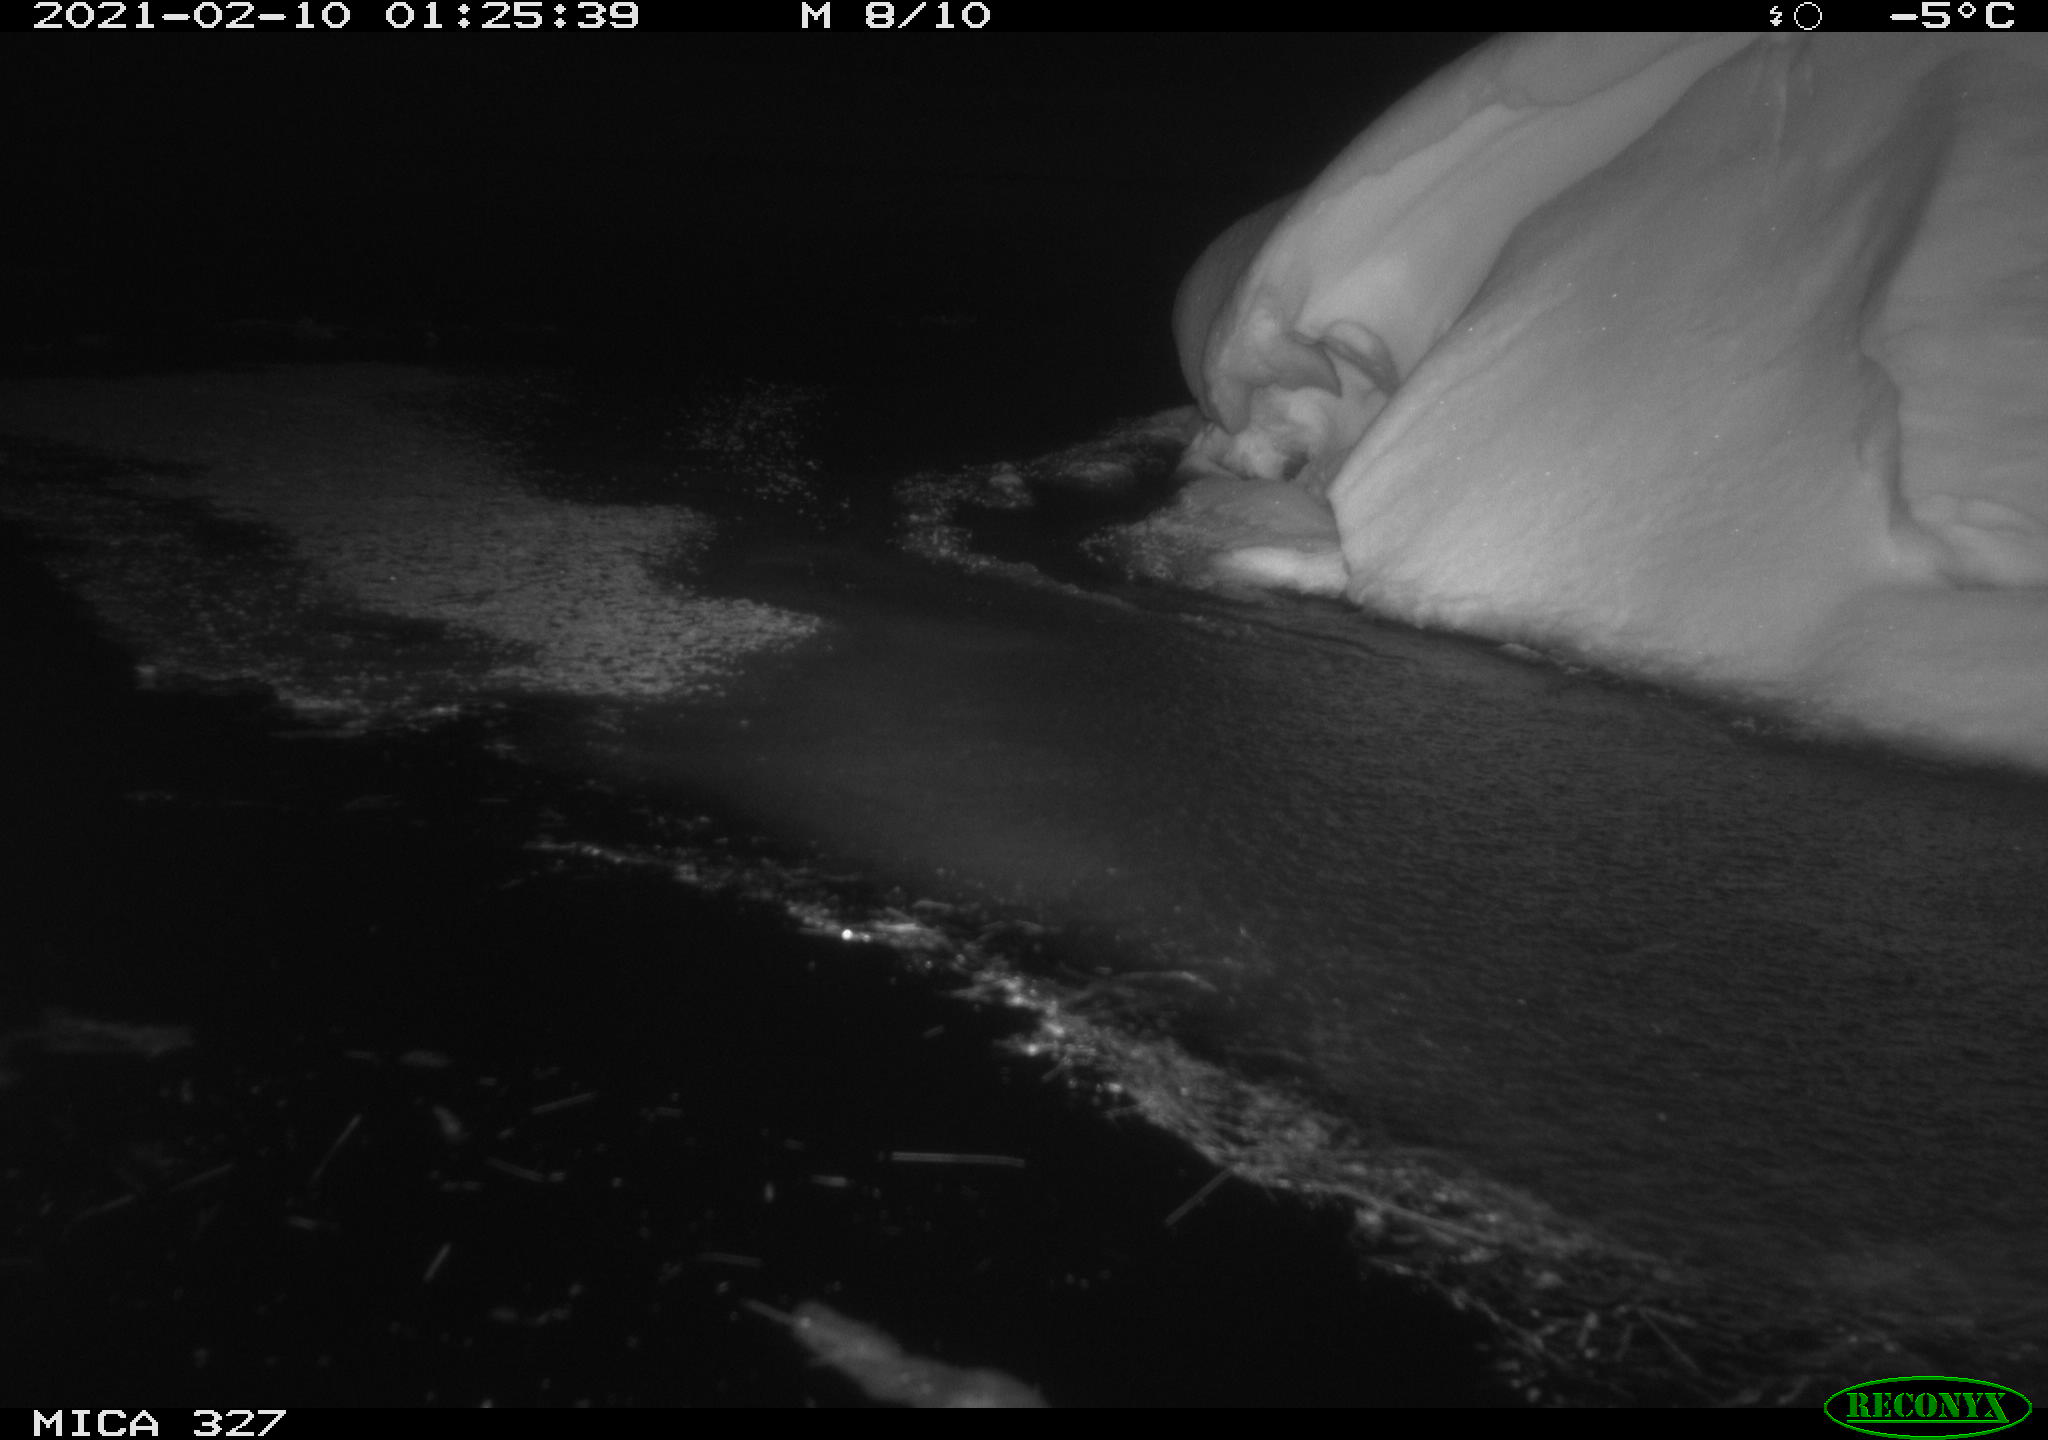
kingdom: Animalia
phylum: Chordata
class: Mammalia
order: Rodentia
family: Cricetidae
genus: Ondatra
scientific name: Ondatra zibethicus
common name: Muskrat
